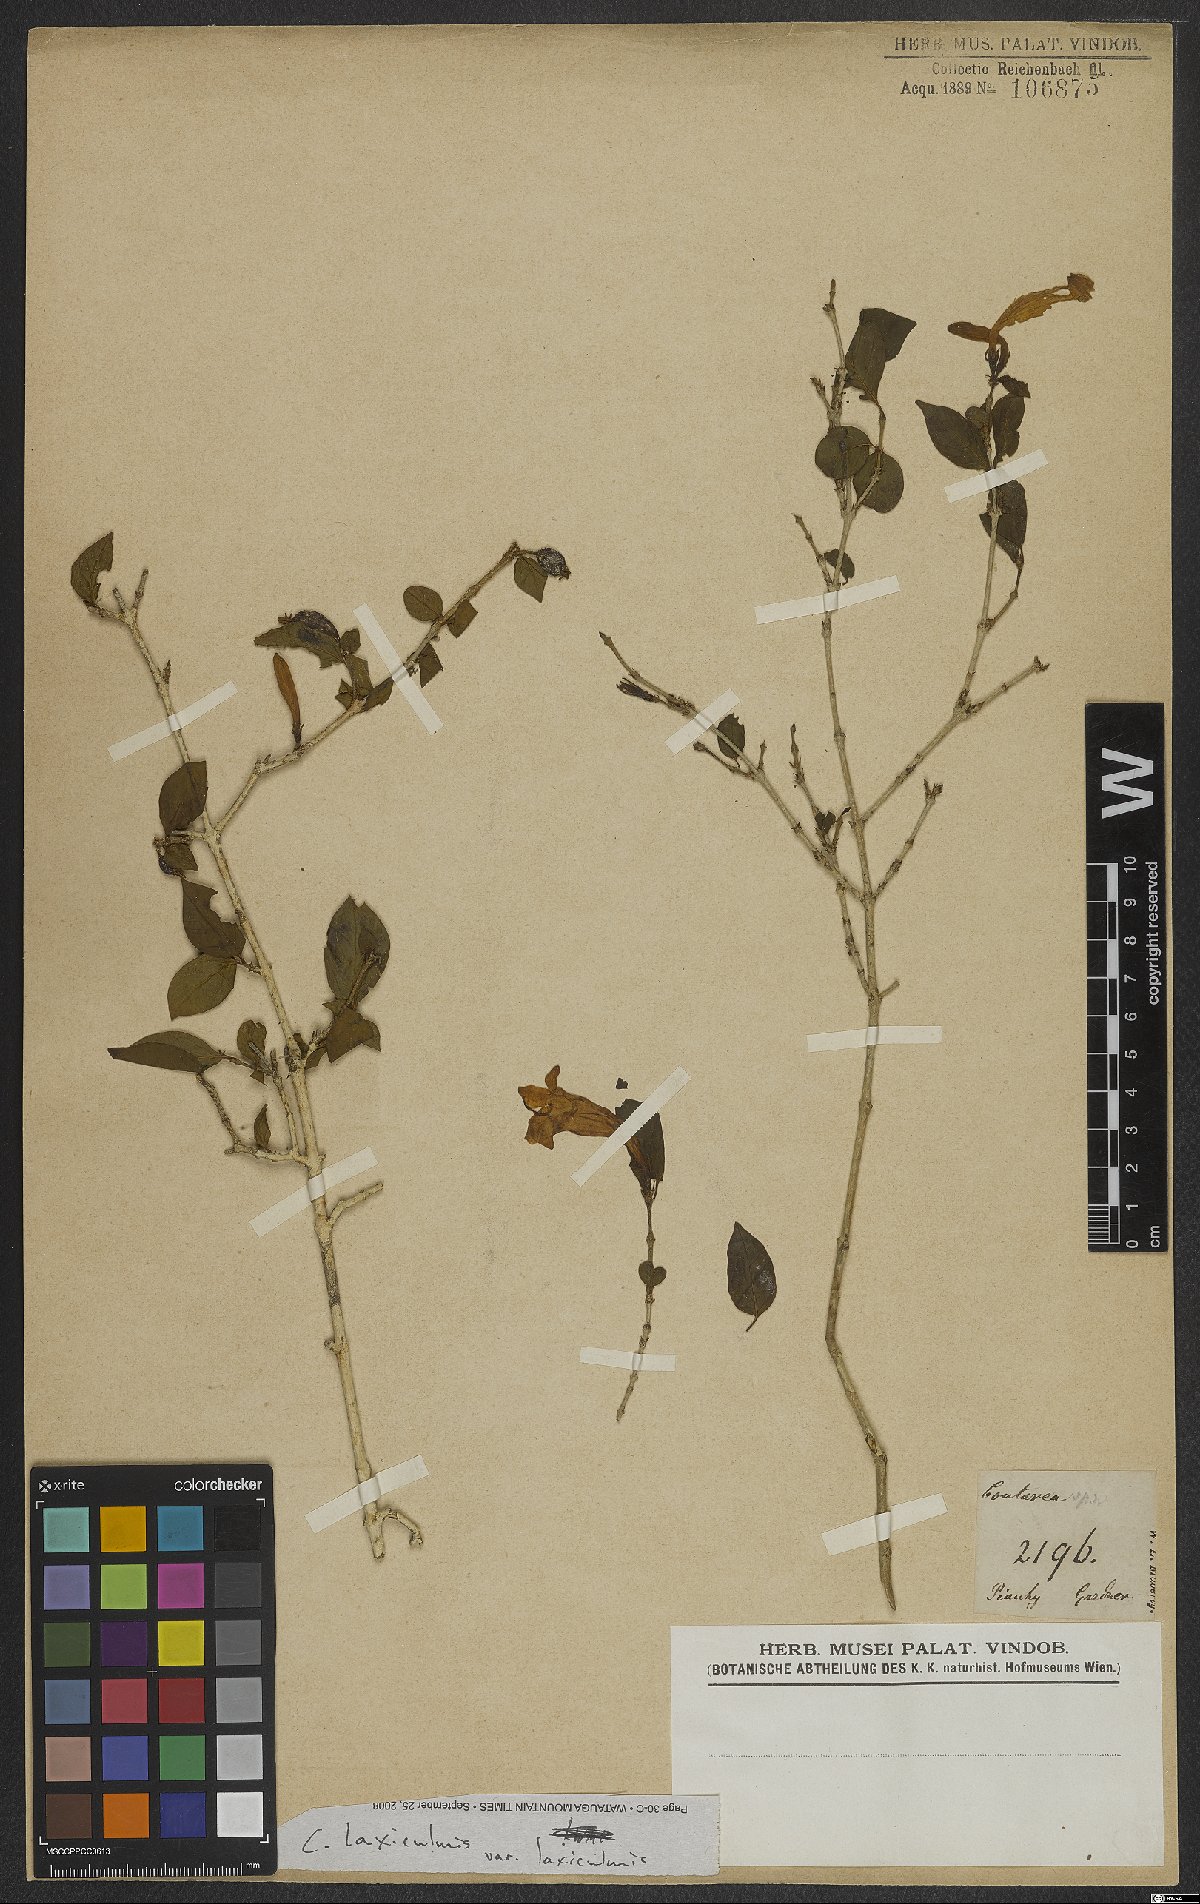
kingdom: Plantae
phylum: Tracheophyta
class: Magnoliopsida
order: Gentianales
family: Rubiaceae
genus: Coutarea
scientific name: Coutarea
